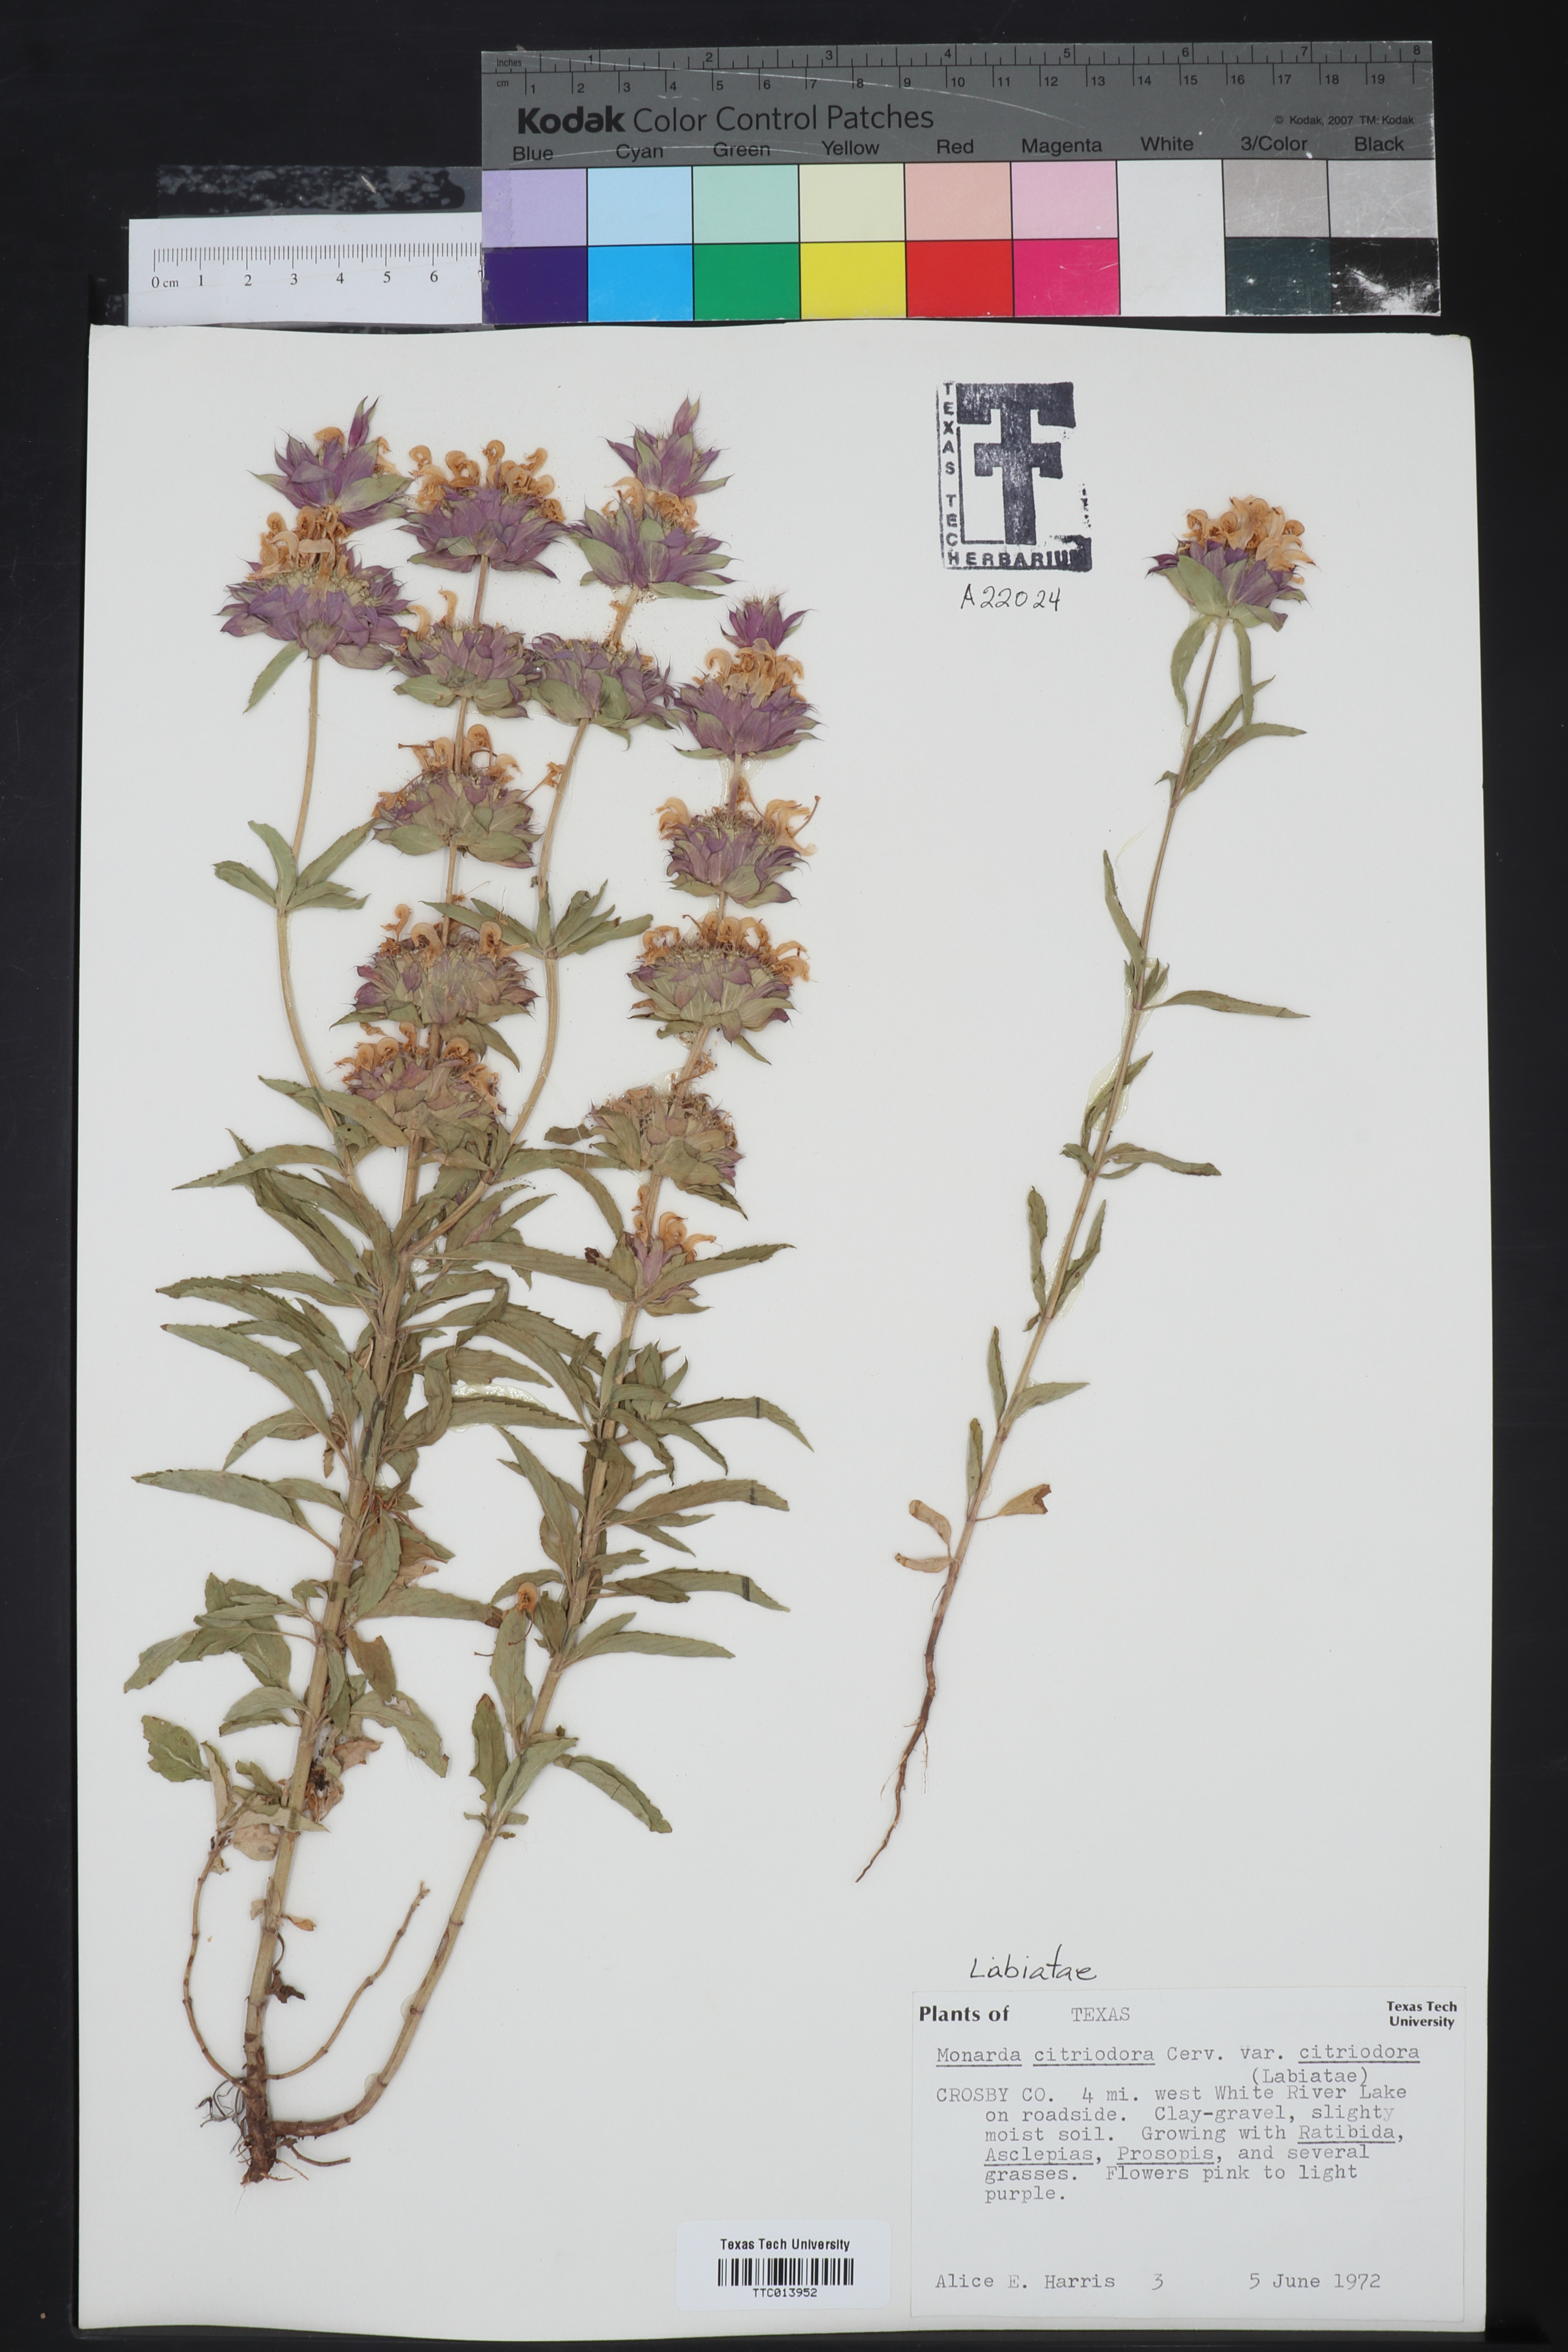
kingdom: Plantae
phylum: Tracheophyta
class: Magnoliopsida
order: Lamiales
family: Lamiaceae
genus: Monarda
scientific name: Monarda citriodora
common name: Lemon beebalm
